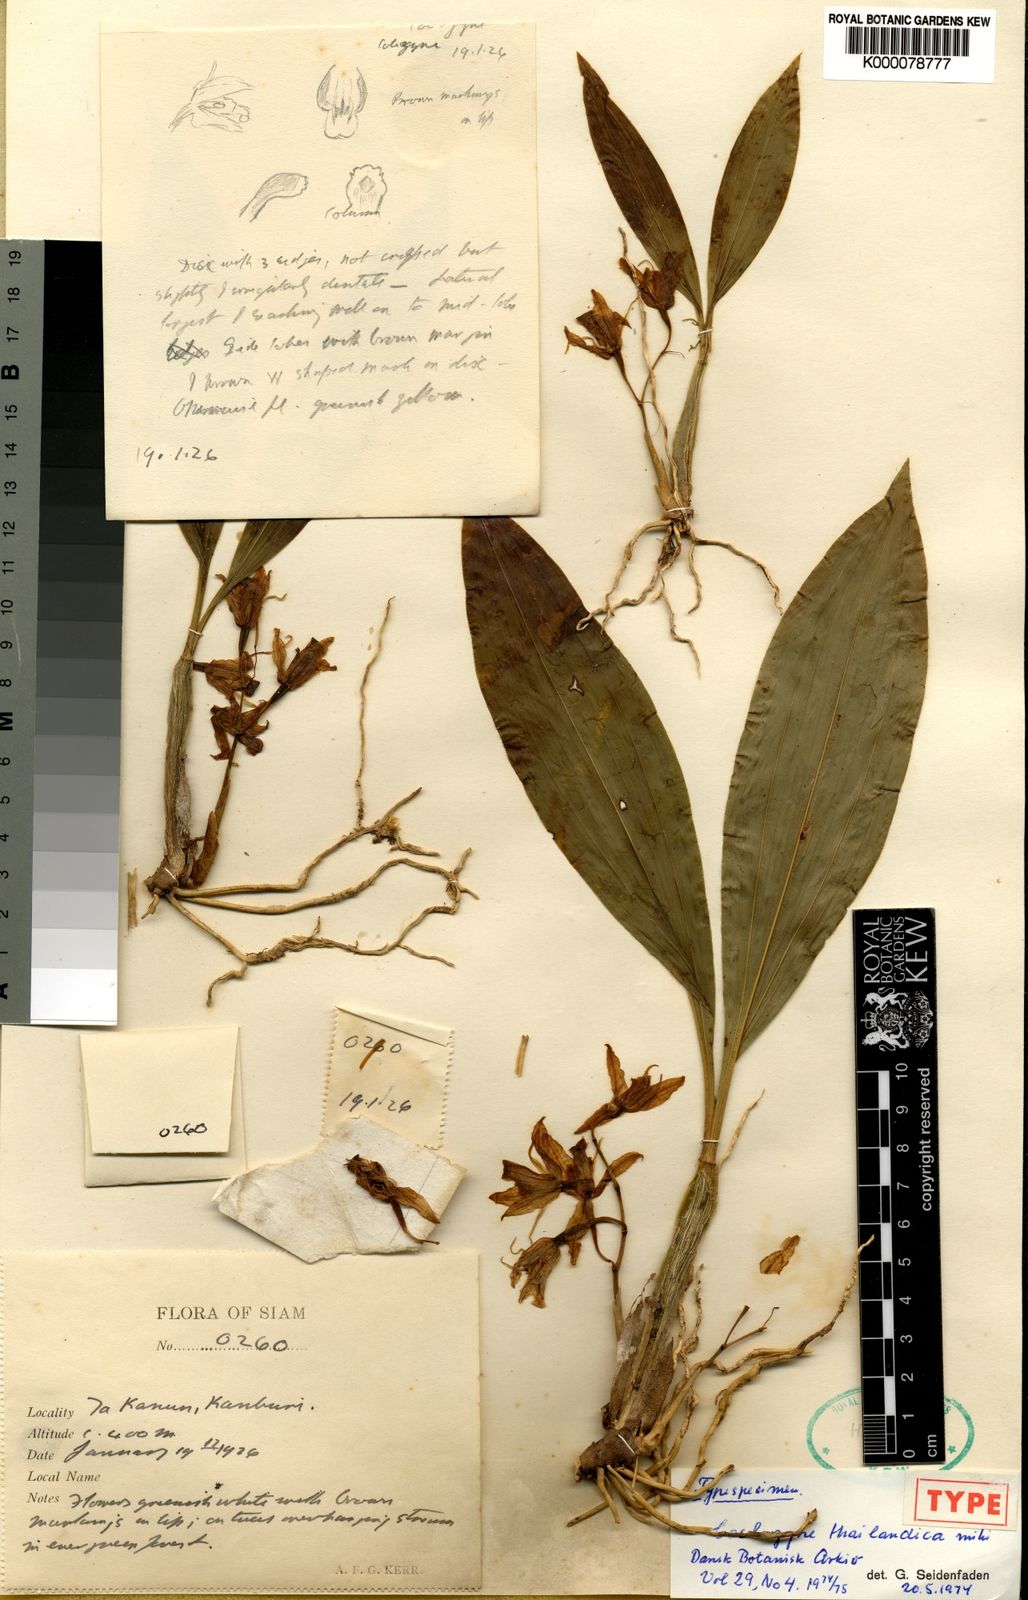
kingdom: Plantae
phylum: Tracheophyta
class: Liliopsida
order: Asparagales
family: Orchidaceae
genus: Coelogyne
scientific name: Coelogyne quadratiloba
